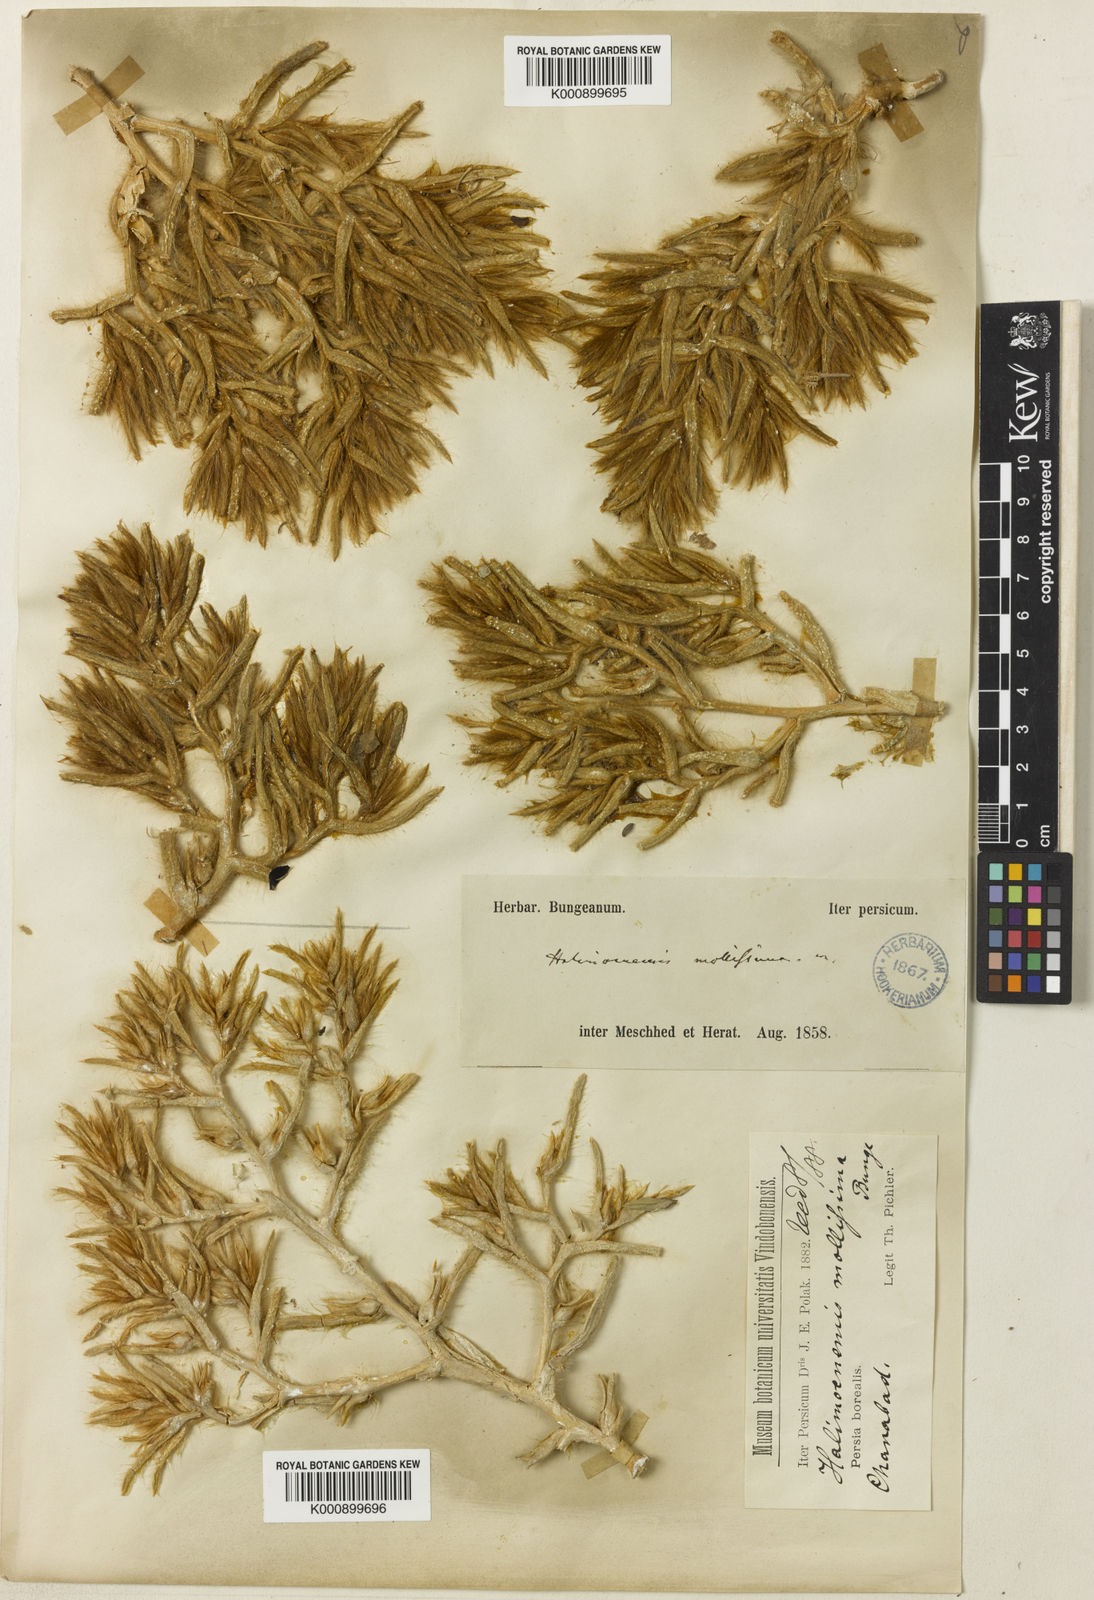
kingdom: Plantae
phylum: Tracheophyta
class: Magnoliopsida
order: Caryophyllales
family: Amaranthaceae
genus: Halimocnemis
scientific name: Halimocnemis mollissima
